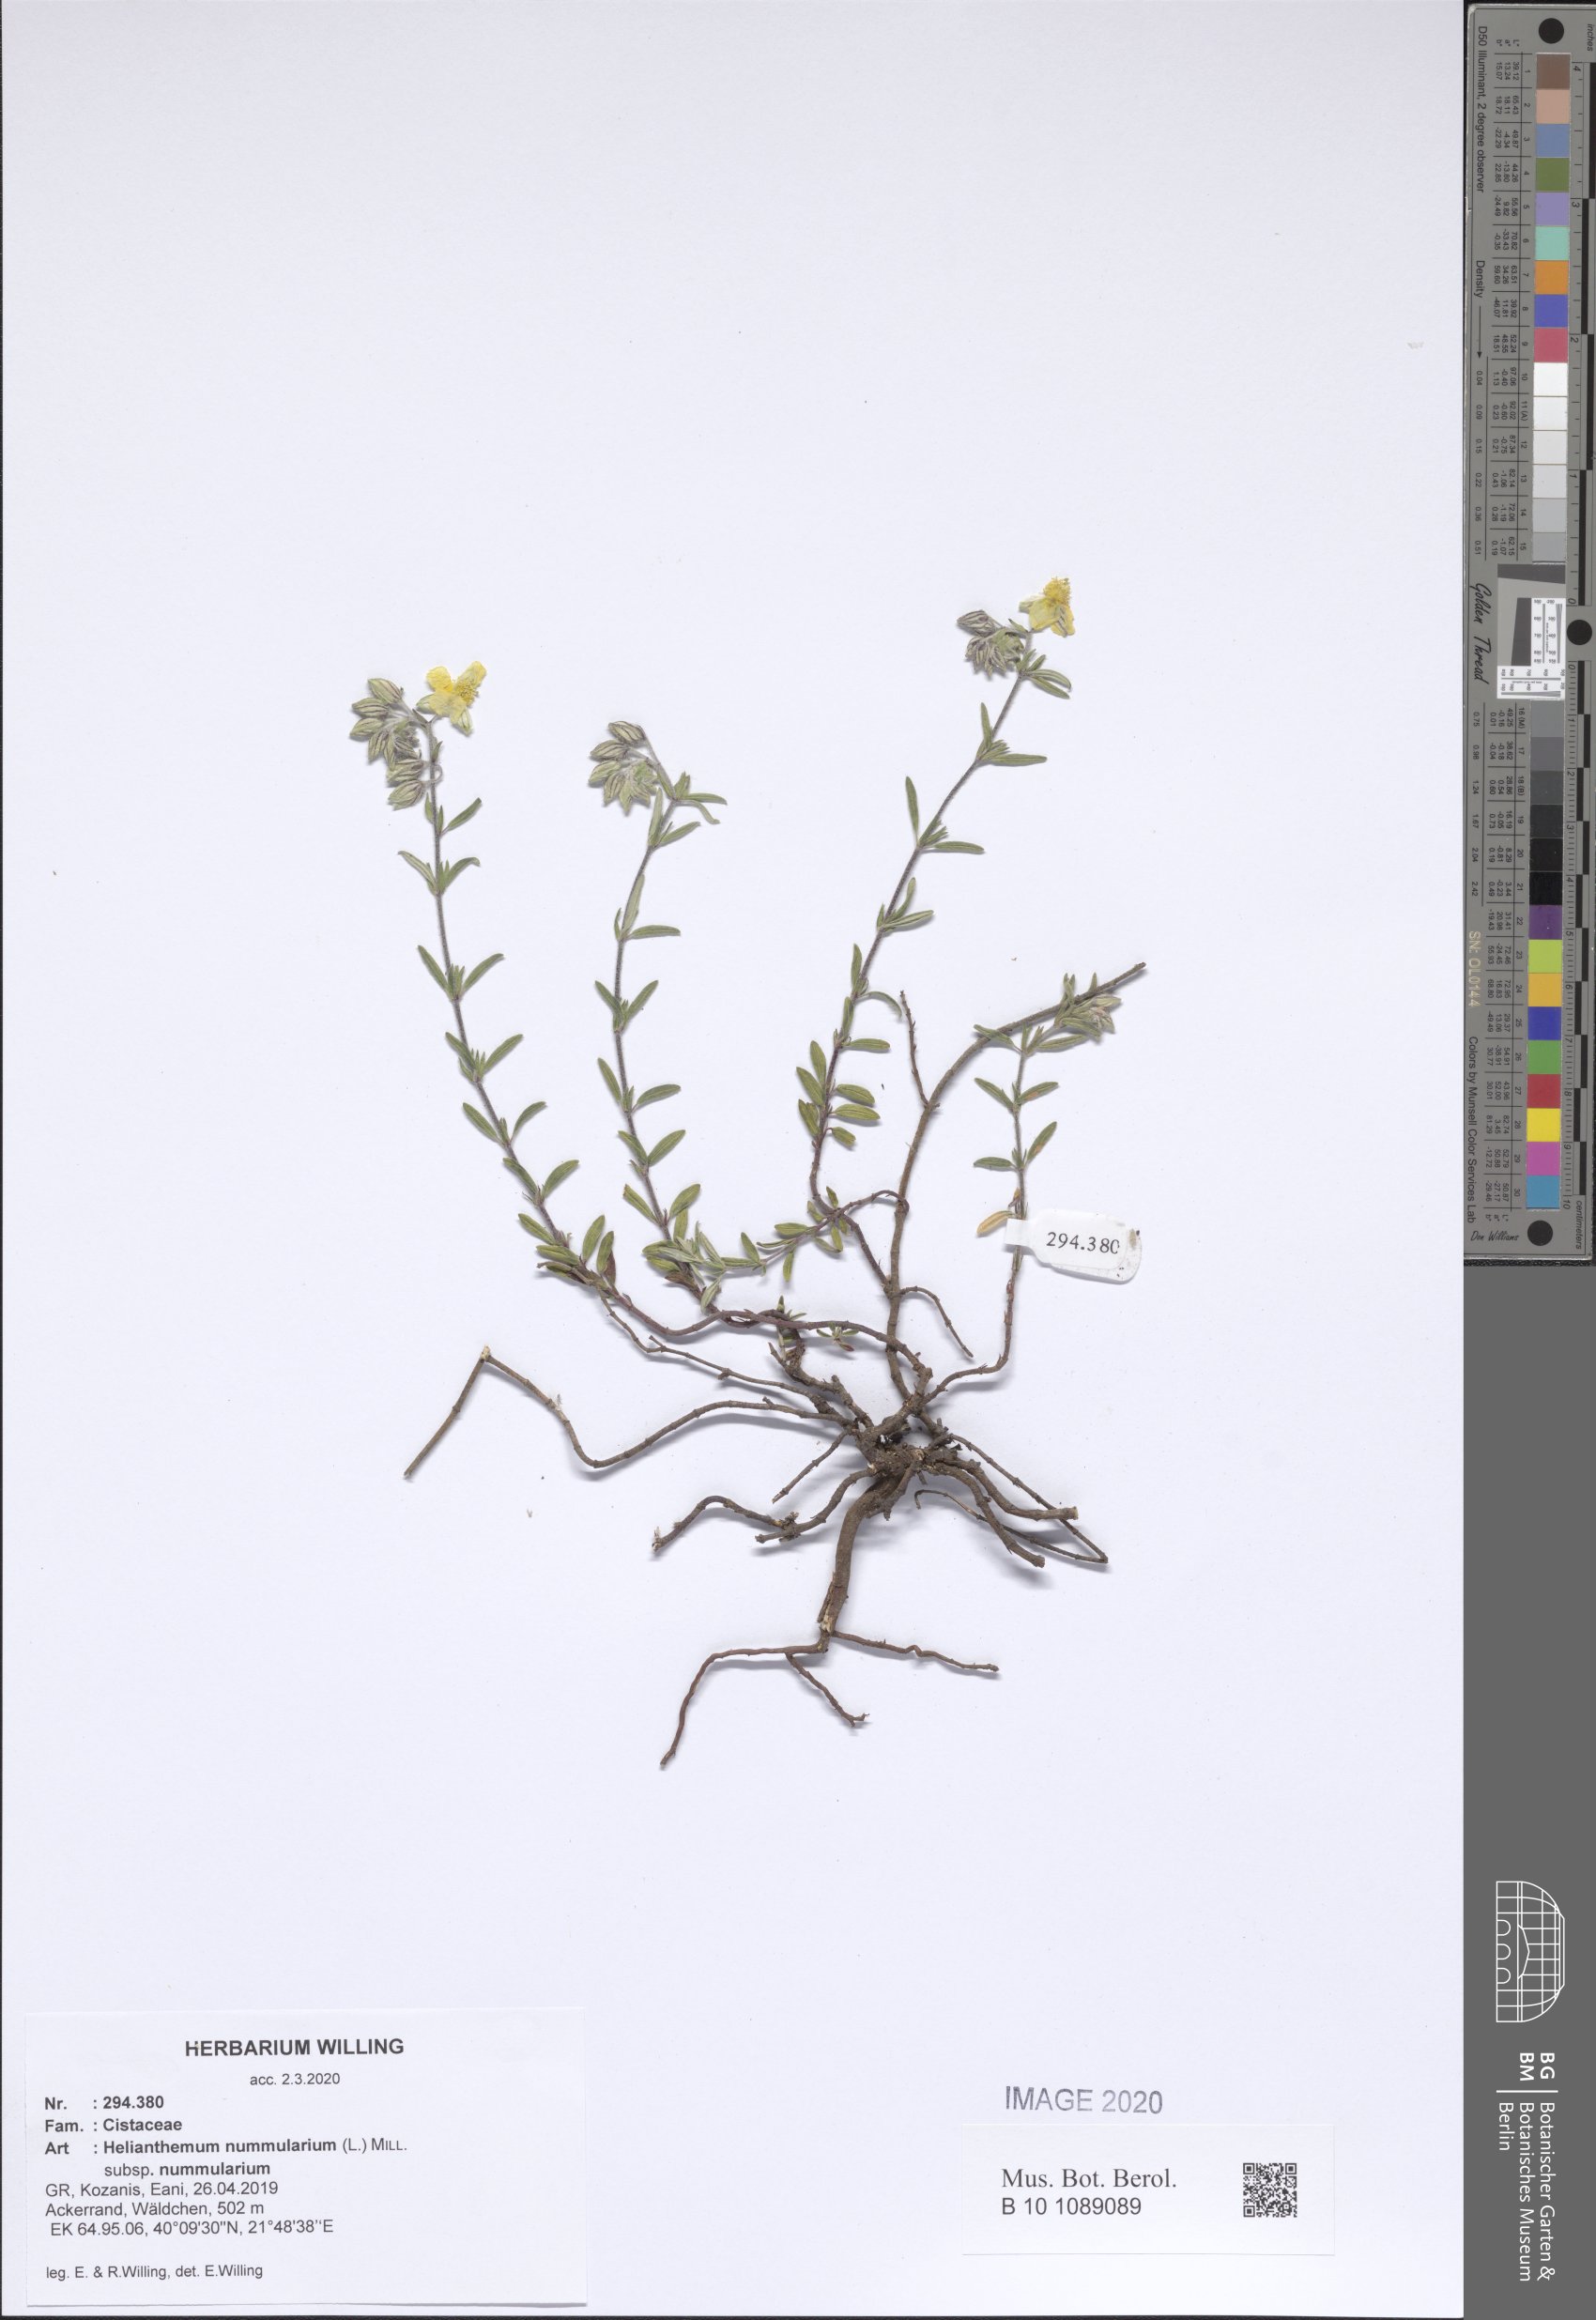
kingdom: Plantae
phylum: Tracheophyta
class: Magnoliopsida
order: Malvales
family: Cistaceae
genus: Helianthemum
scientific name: Helianthemum nummularium
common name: Common rock-rose
